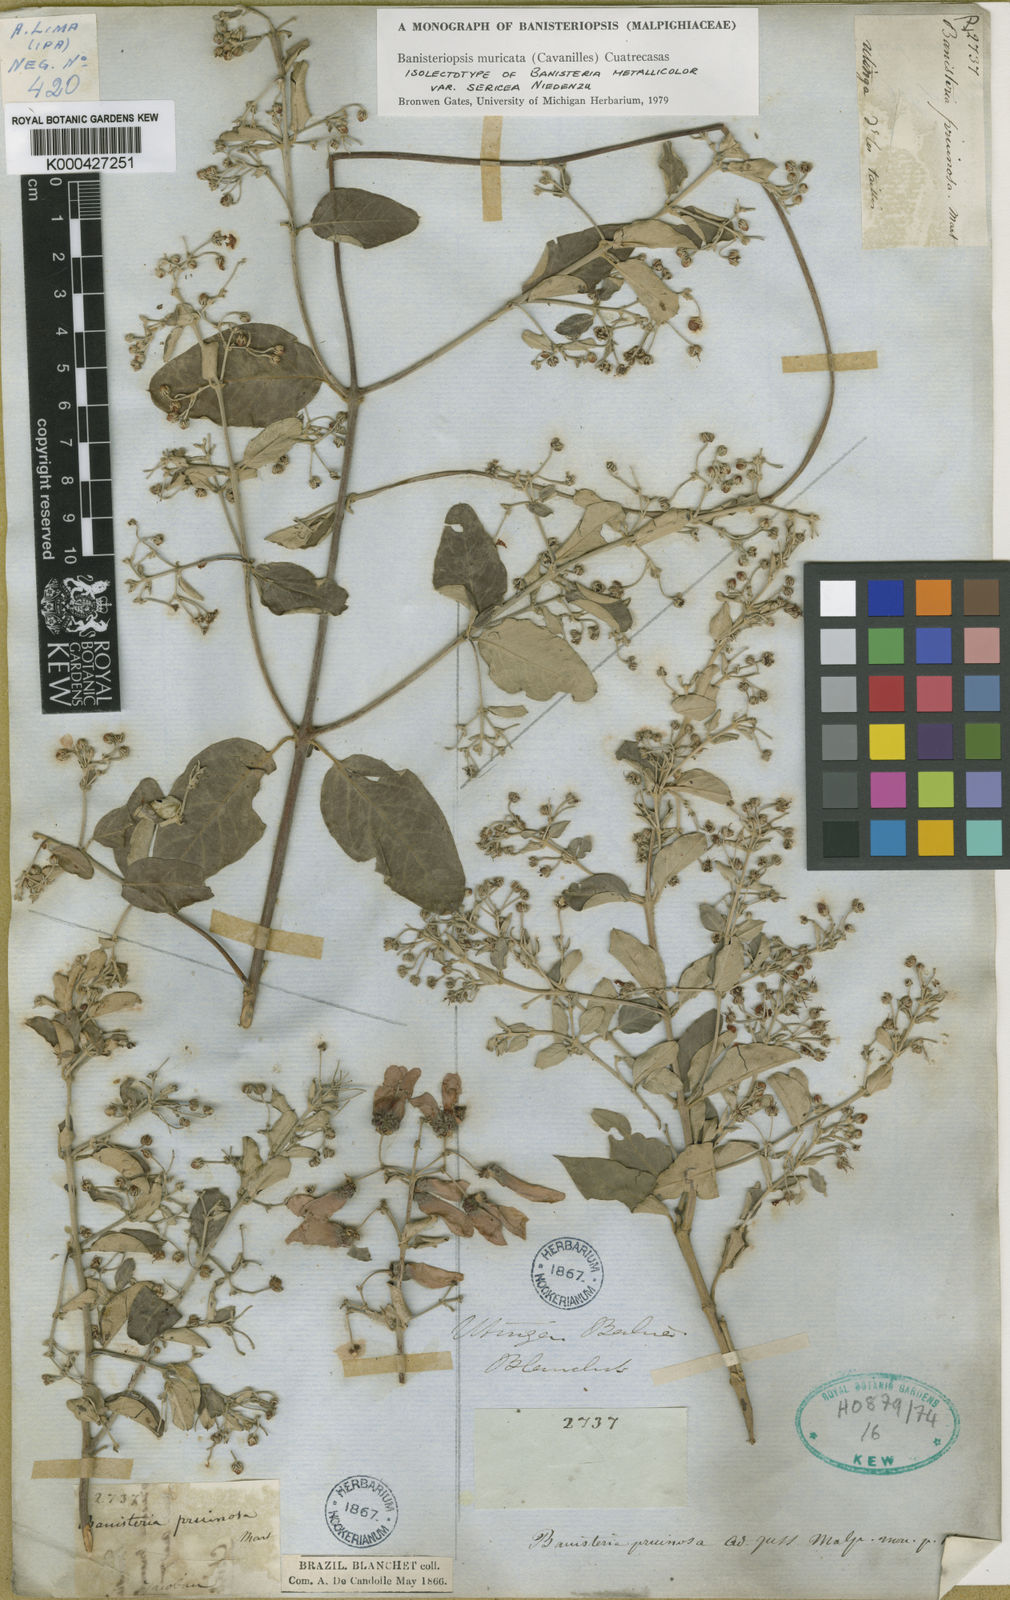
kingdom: Plantae
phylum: Tracheophyta
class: Magnoliopsida
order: Malpighiales
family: Malpighiaceae
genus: Banisteriopsis
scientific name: Banisteriopsis muricata
